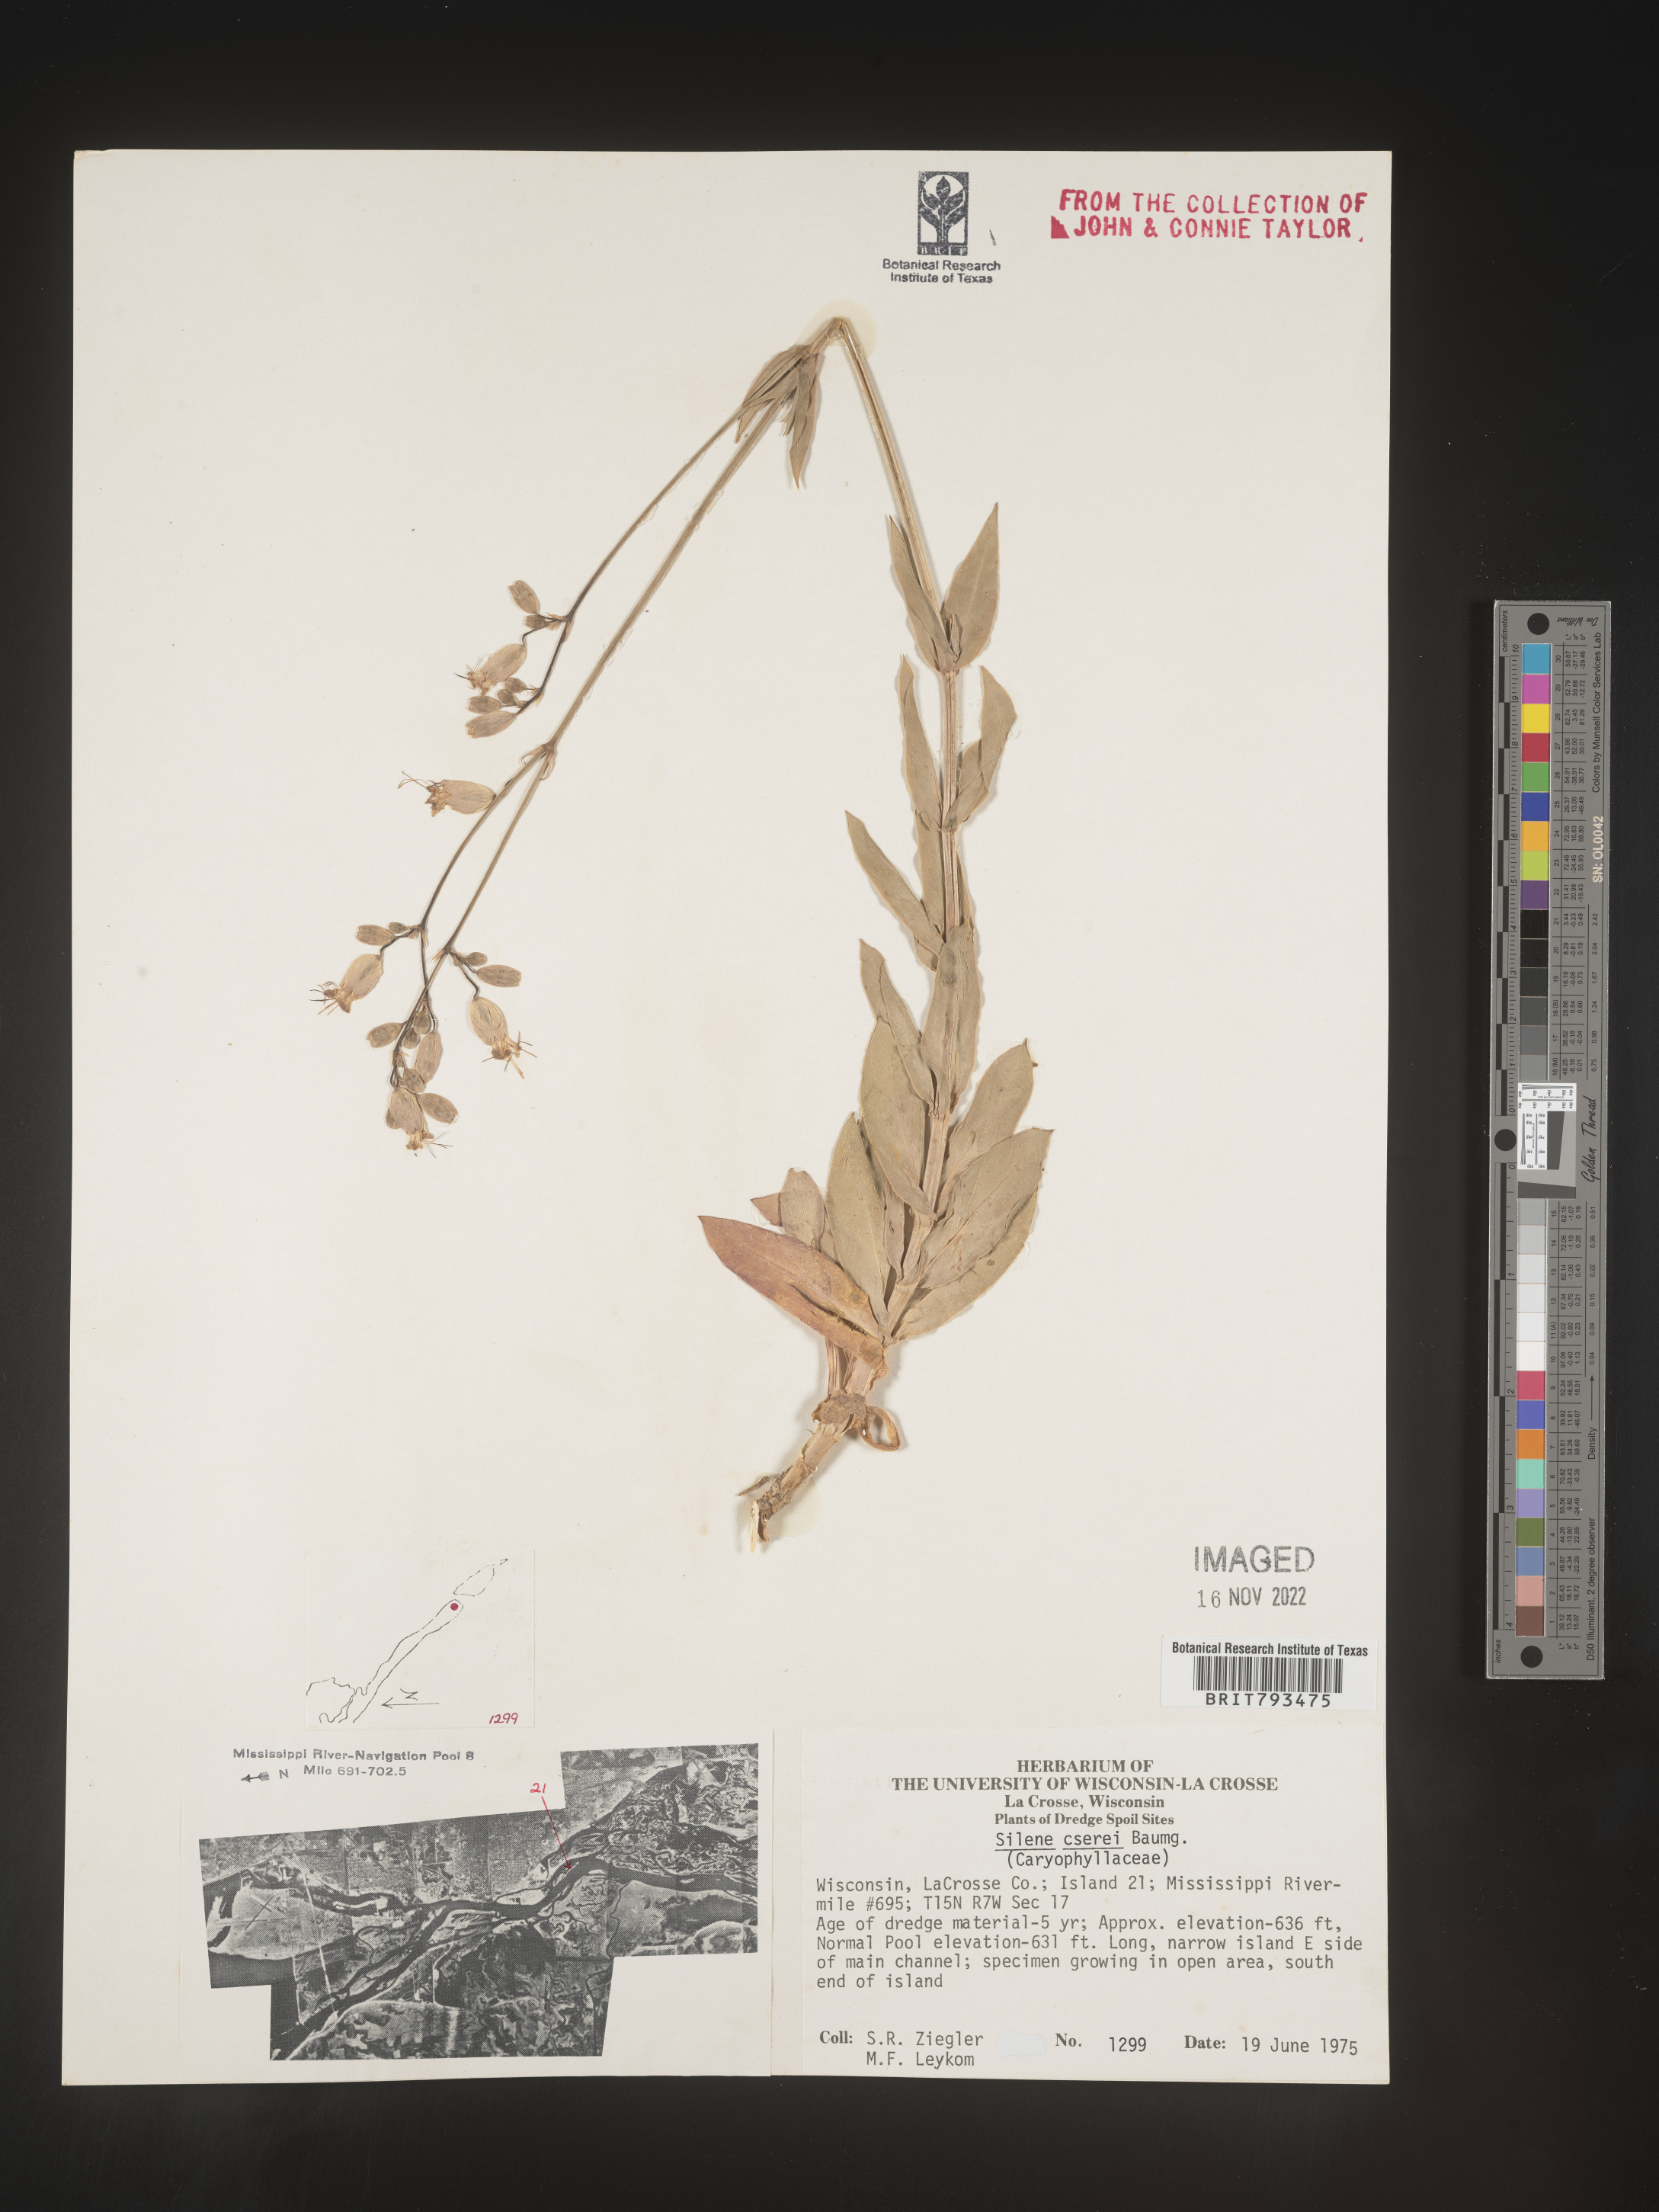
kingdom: Plantae
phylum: Tracheophyta
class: Magnoliopsida
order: Caryophyllales
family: Caryophyllaceae
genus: Silene
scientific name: Silene csereii
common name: Balkan catchfly
